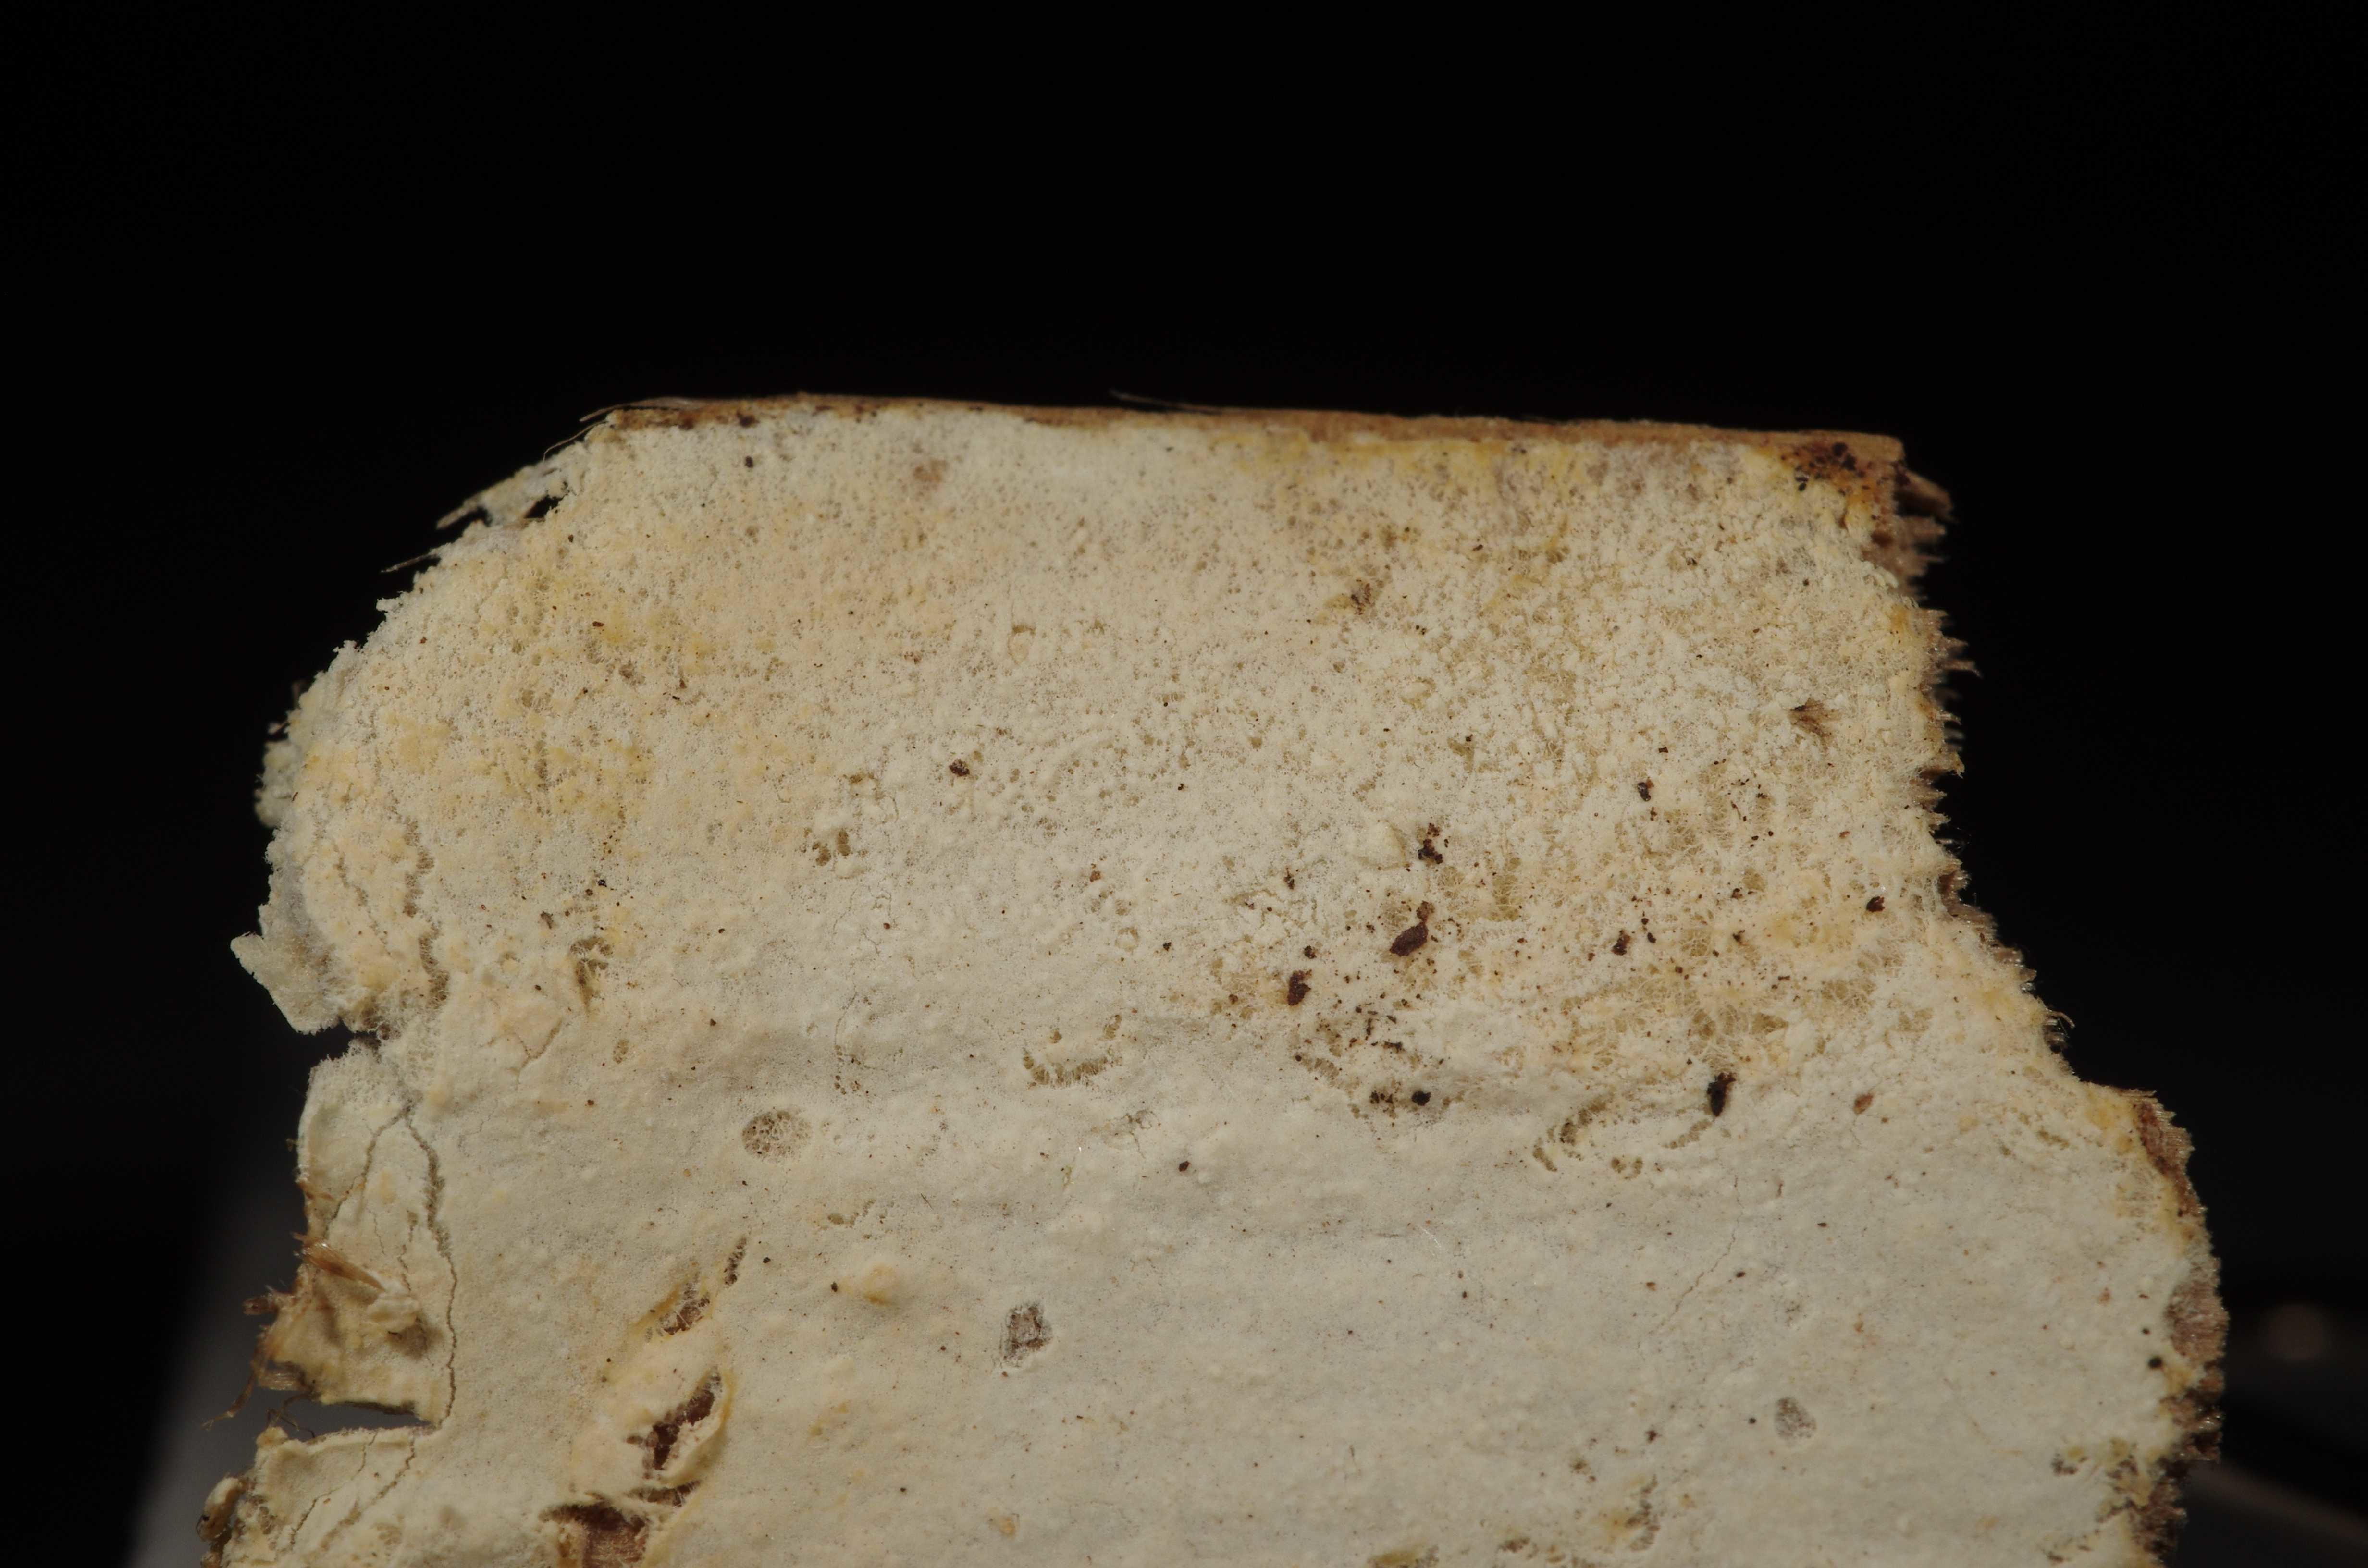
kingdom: Fungi
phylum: Basidiomycota
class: Agaricomycetes
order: Polyporales
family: Meruliaceae
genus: Hypochnicium
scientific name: Hypochnicium multiforme
